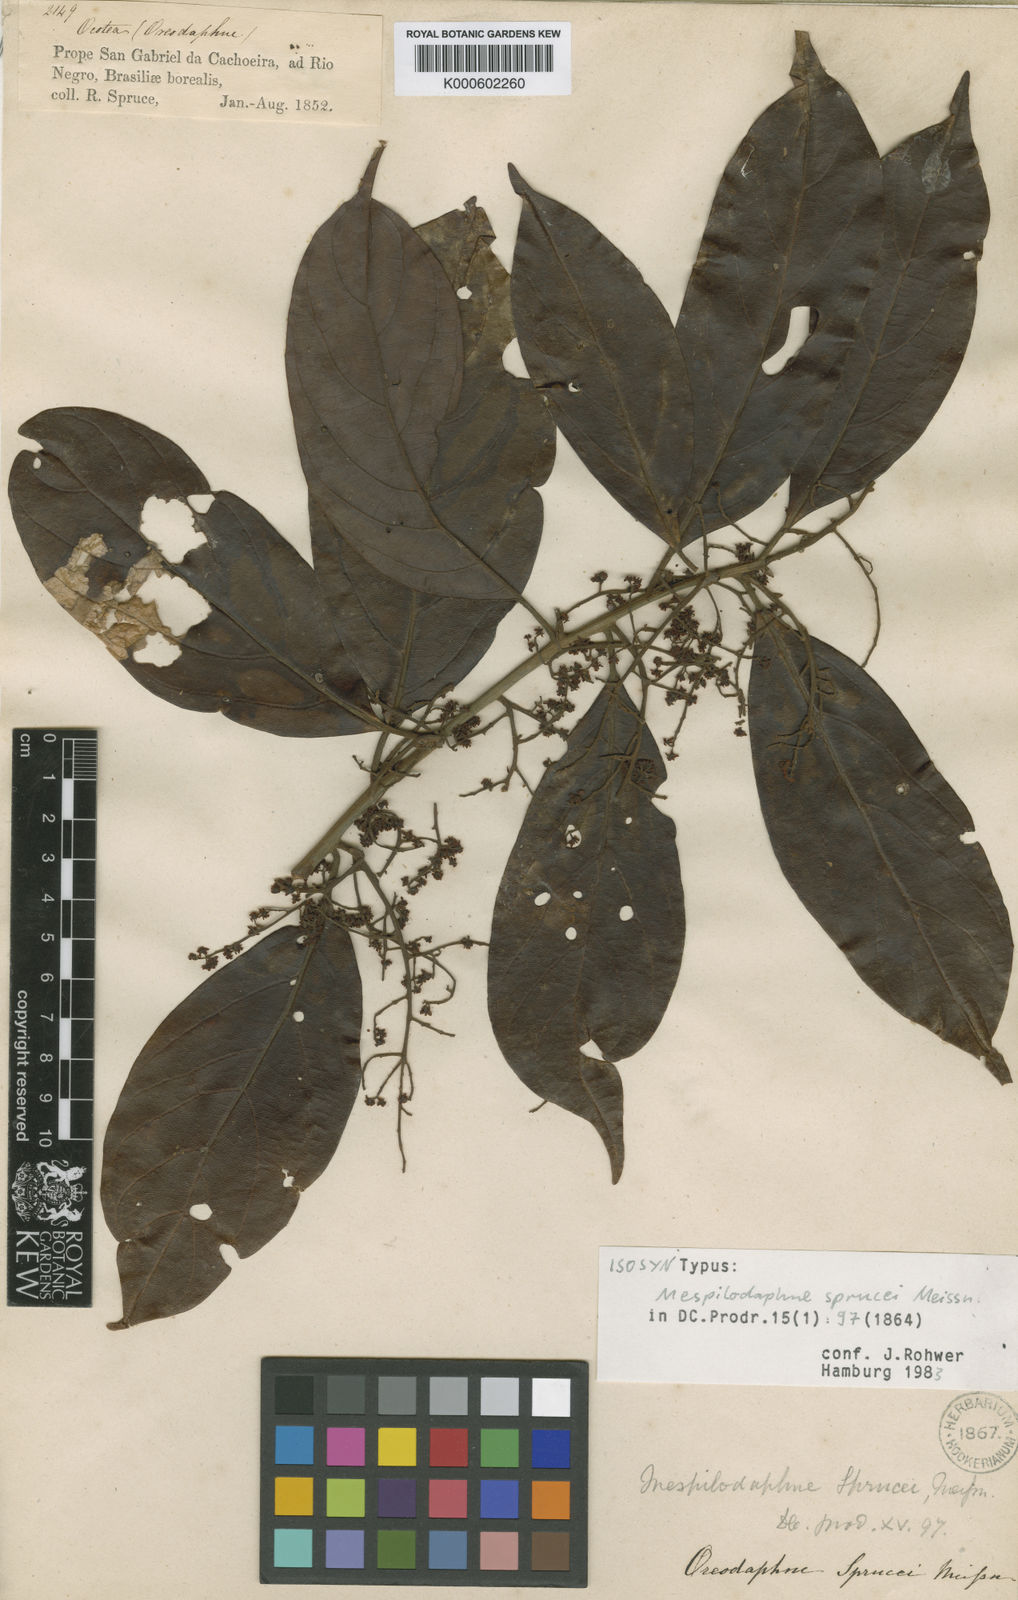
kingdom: Plantae
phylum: Tracheophyta
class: Magnoliopsida
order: Laurales
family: Lauraceae
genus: Mespilodaphne
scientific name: Mespilodaphne sprucei
